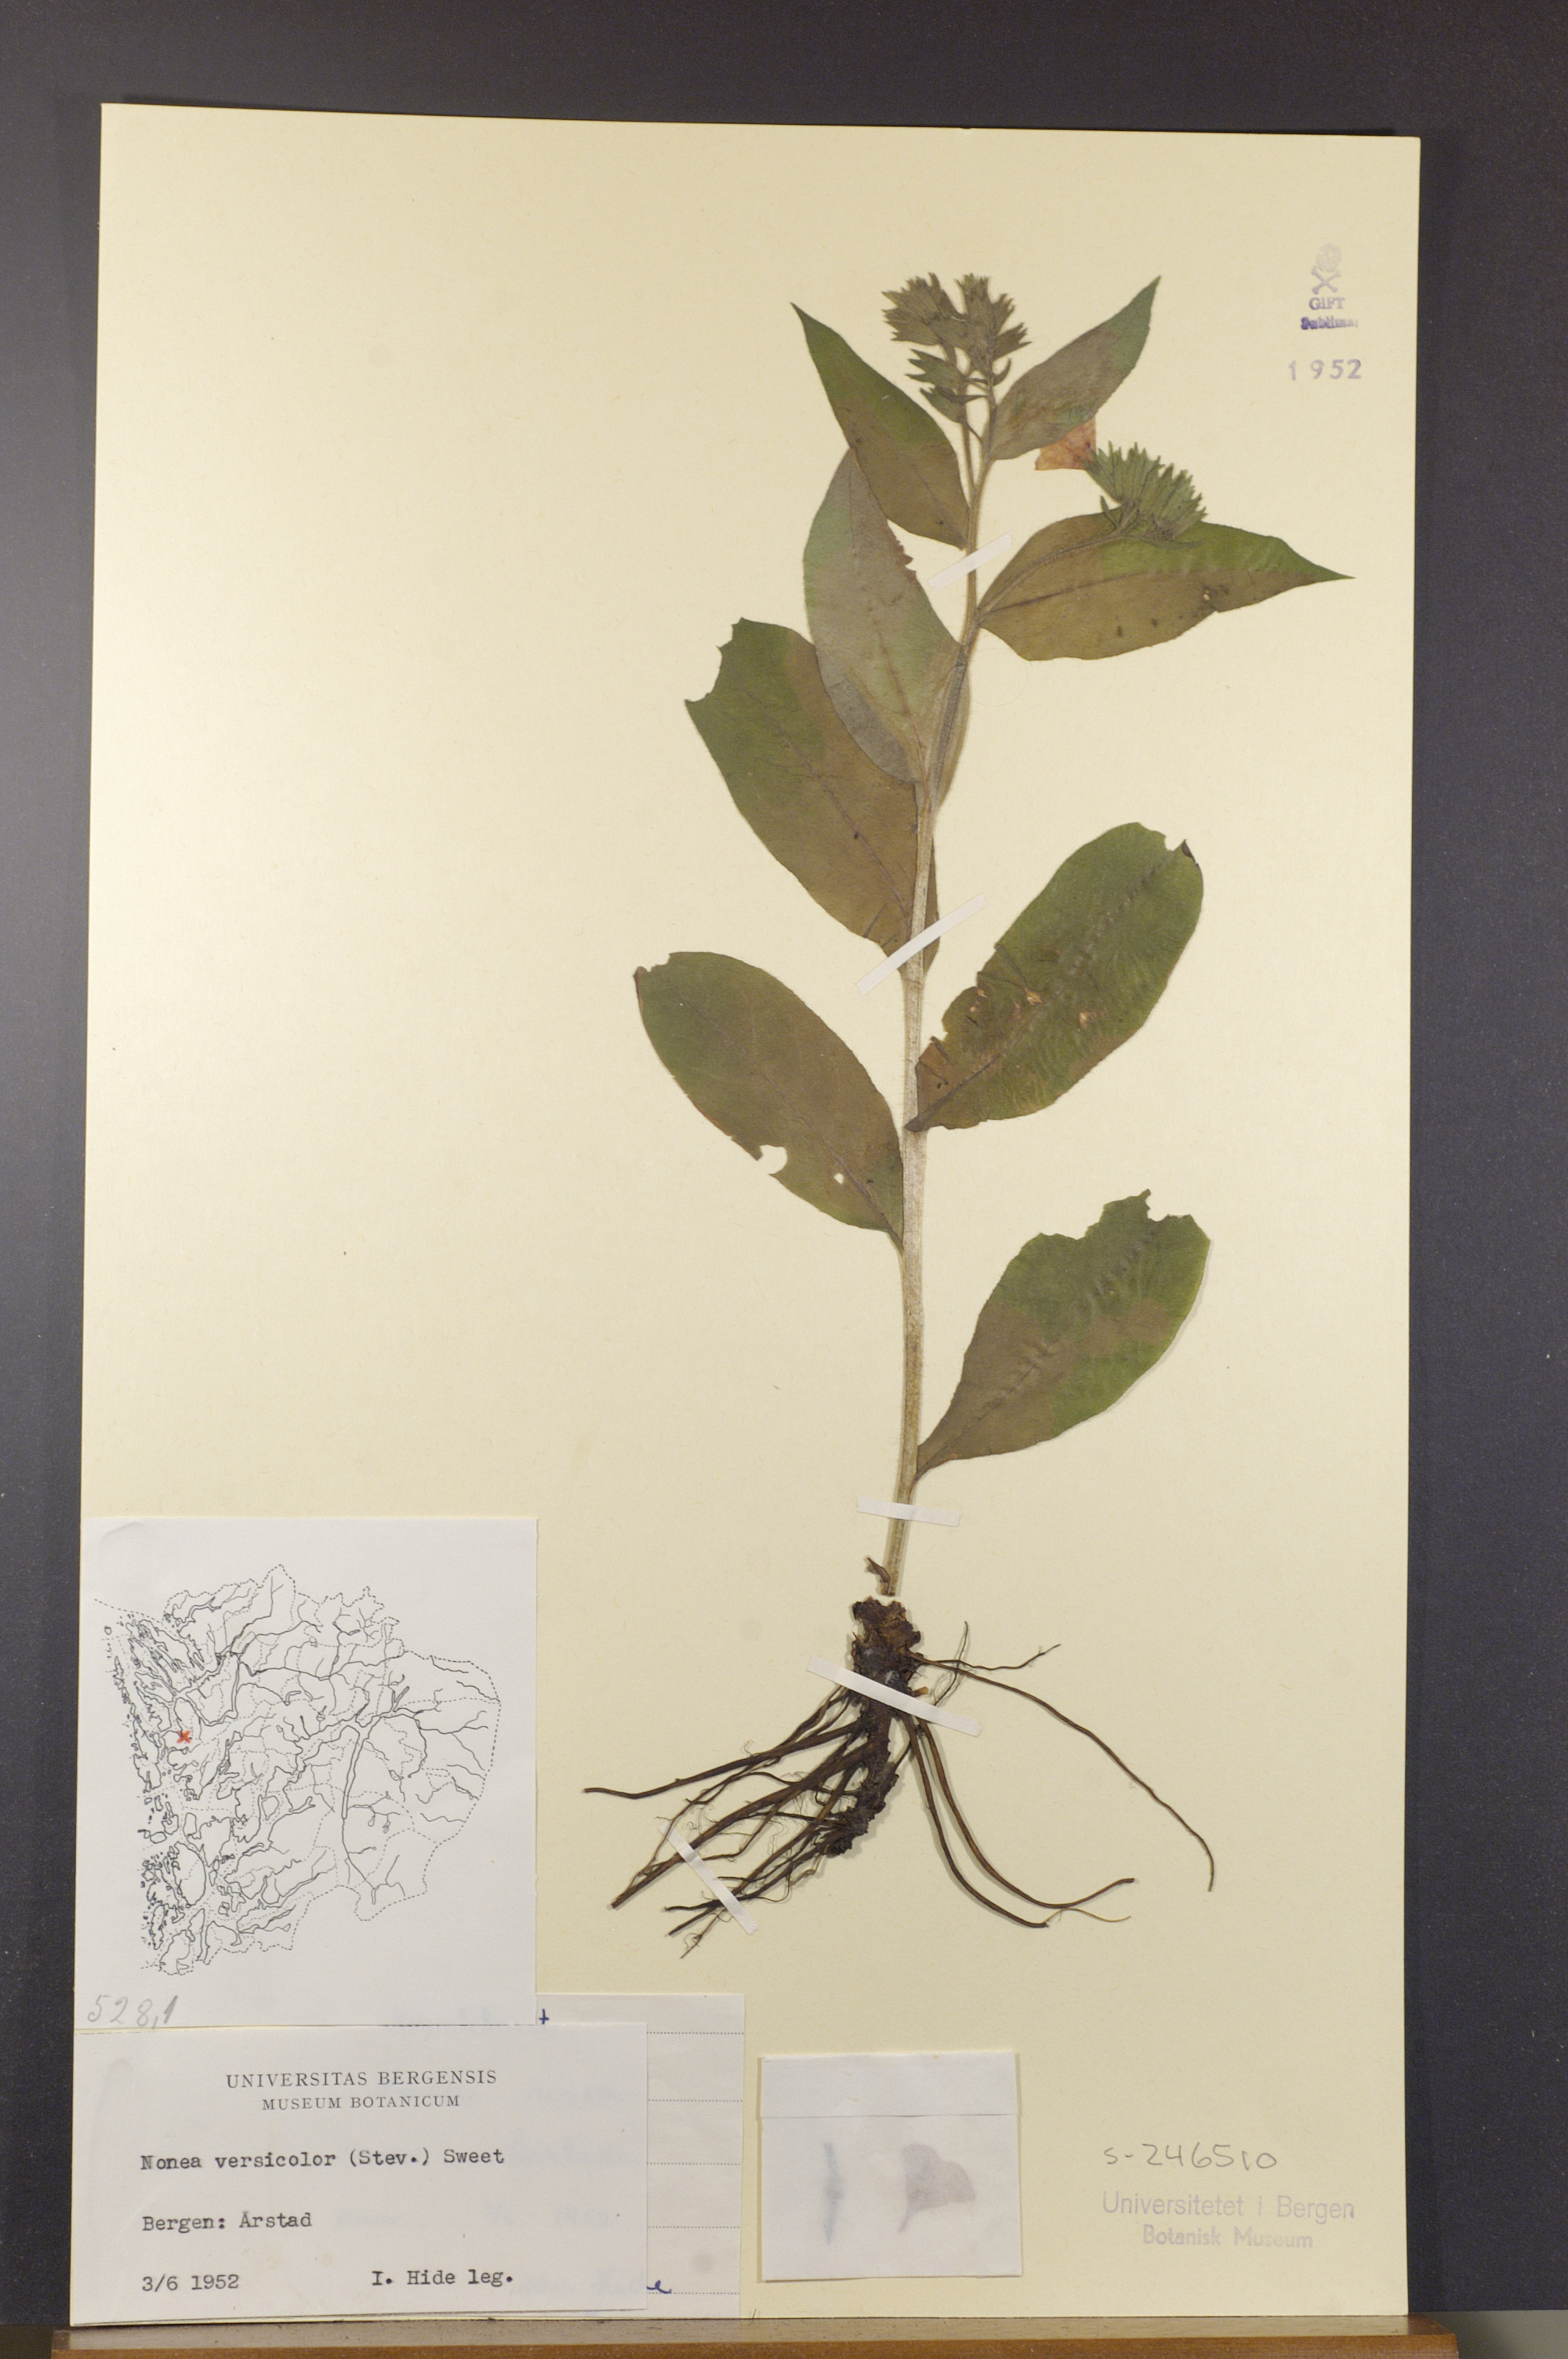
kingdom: Plantae
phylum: Tracheophyta
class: Magnoliopsida
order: Boraginales
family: Boraginaceae
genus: Nonea
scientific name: Nonea versicolor
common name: Varied monkswort
